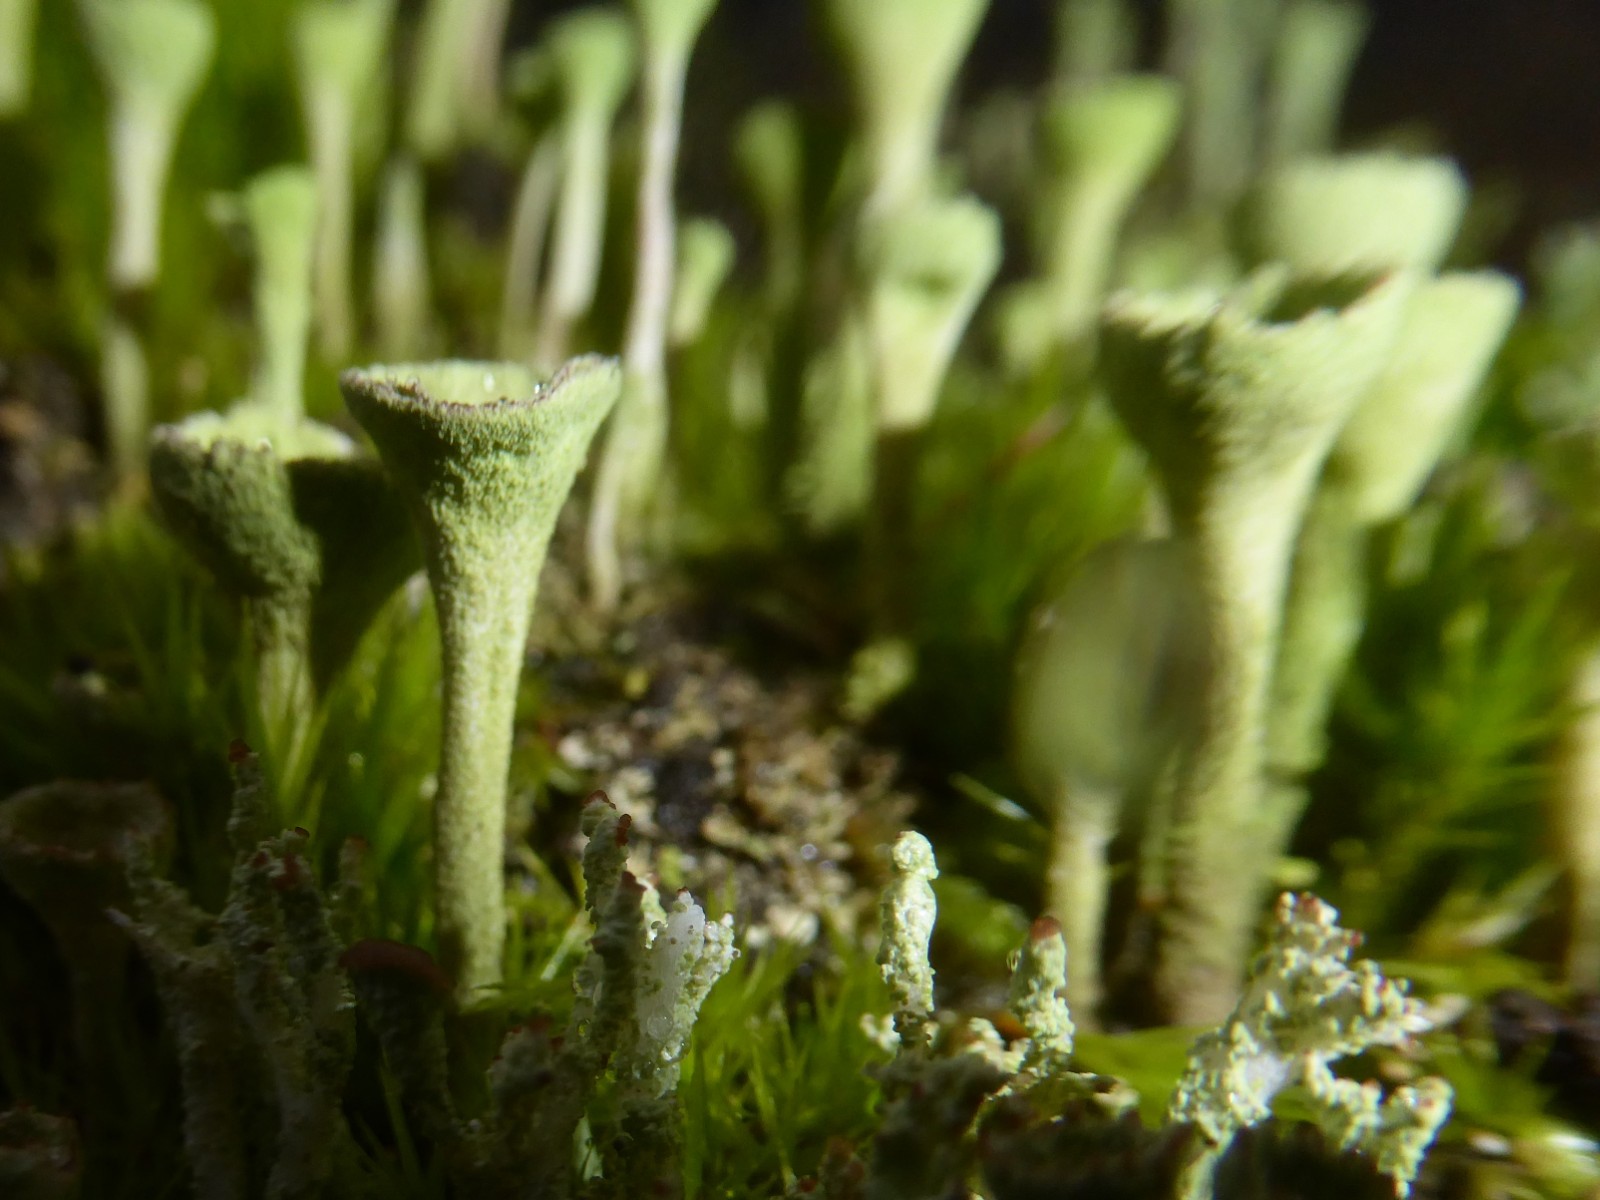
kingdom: Fungi
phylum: Ascomycota
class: Lecanoromycetes
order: Lecanorales
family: Cladoniaceae
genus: Cladonia
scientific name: Cladonia fimbriata
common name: bleggrøn bægerlav
